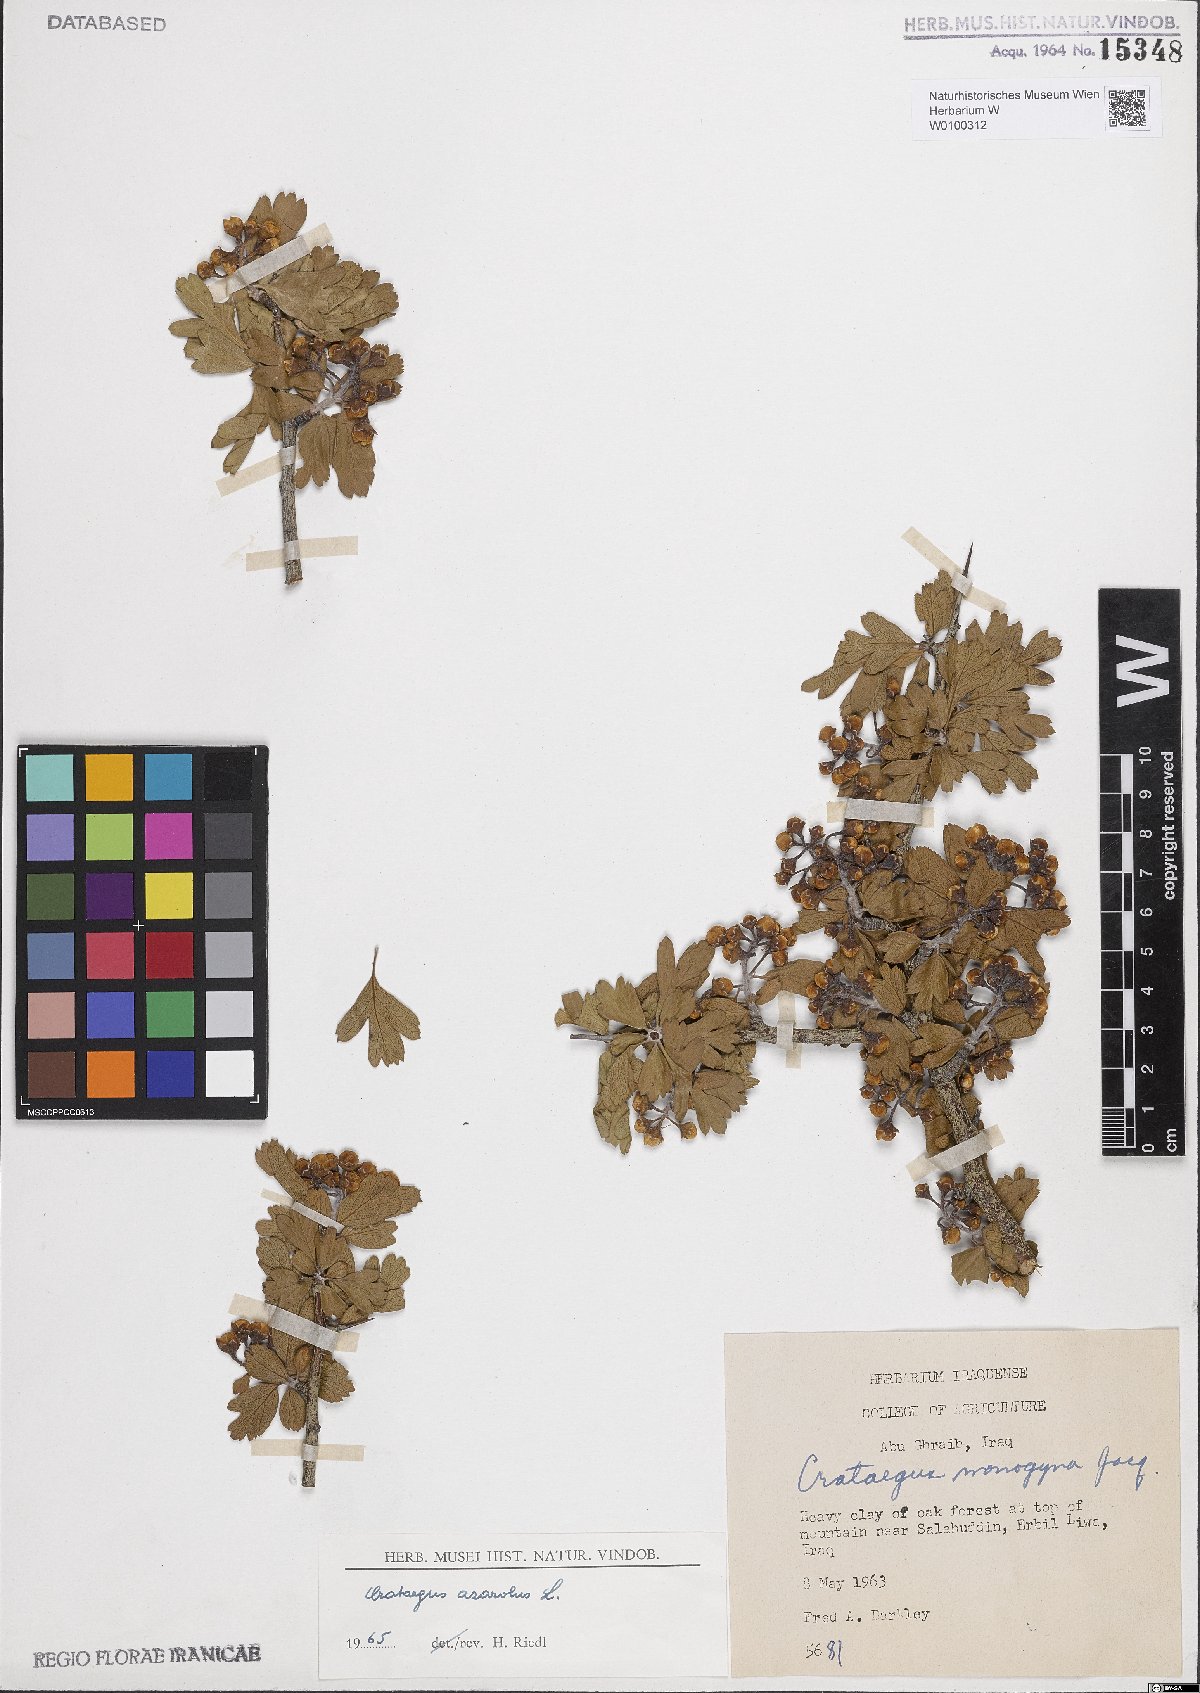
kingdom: Plantae
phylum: Tracheophyta
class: Magnoliopsida
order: Rosales
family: Rosaceae
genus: Crataegus
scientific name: Crataegus azarolus
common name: Azarole
